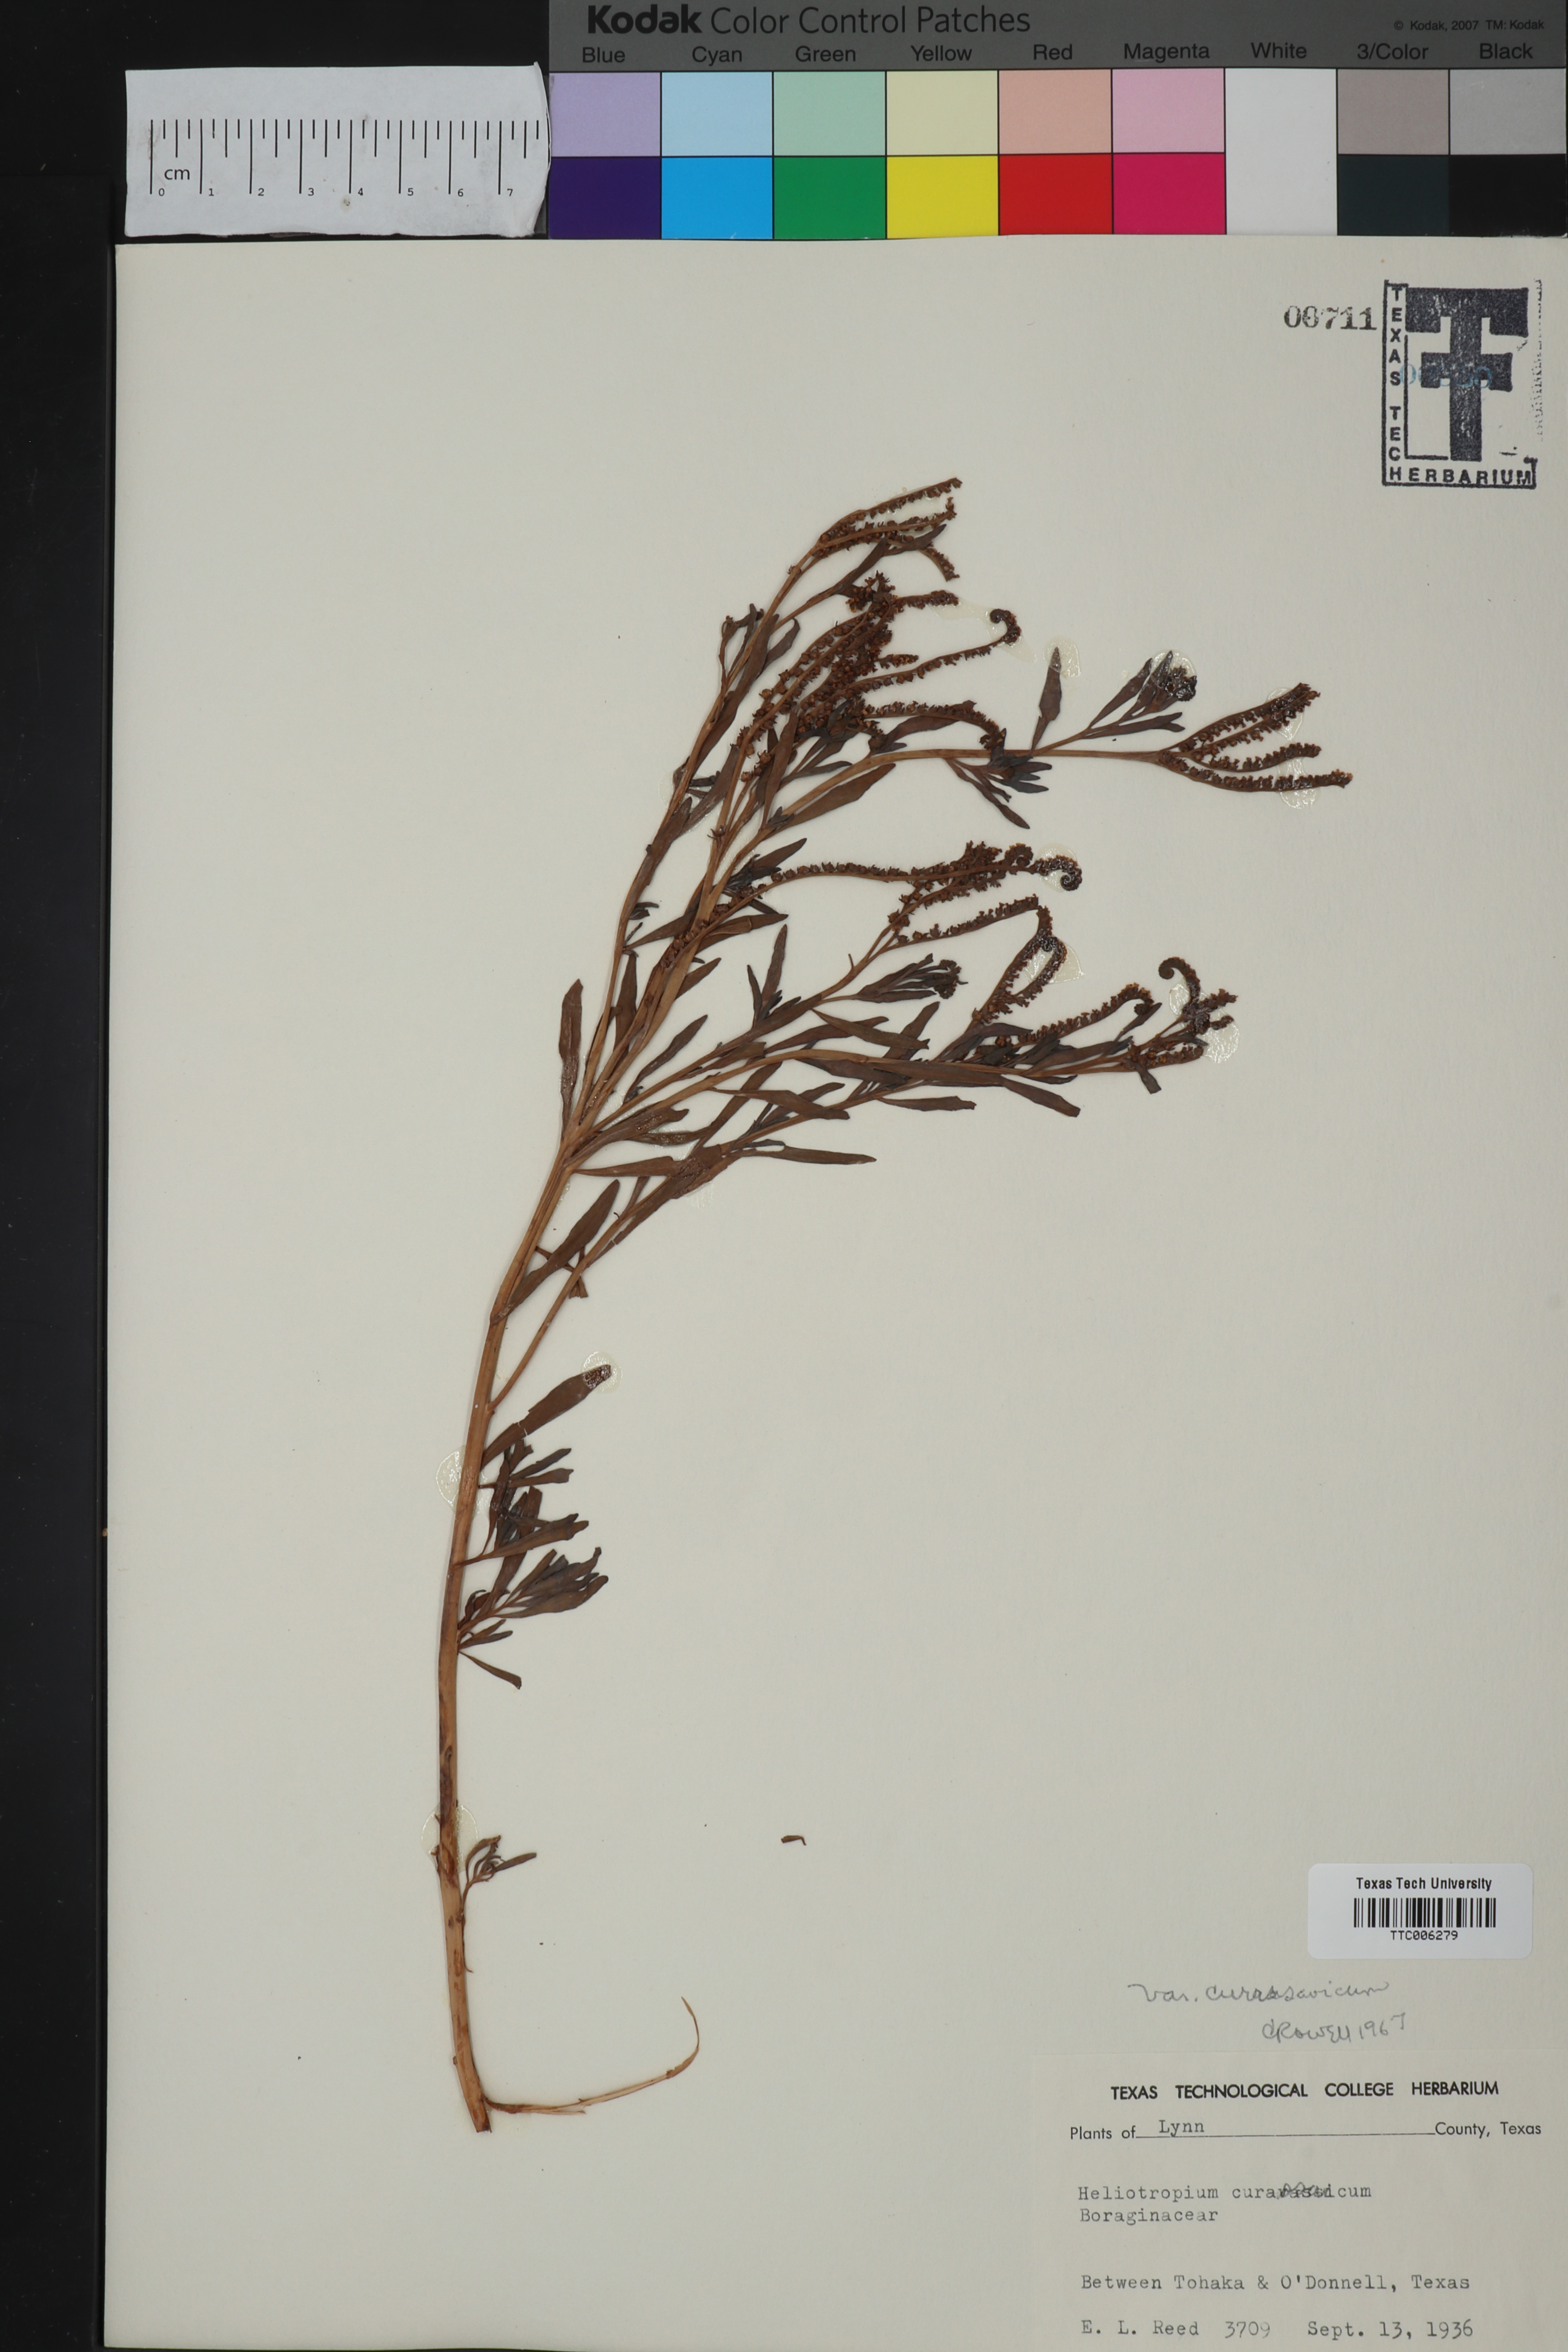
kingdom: Plantae
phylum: Tracheophyta
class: Magnoliopsida
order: Boraginales
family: Heliotropiaceae
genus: Heliotropium
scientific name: Heliotropium curassavicum
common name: Seaside heliotrope
